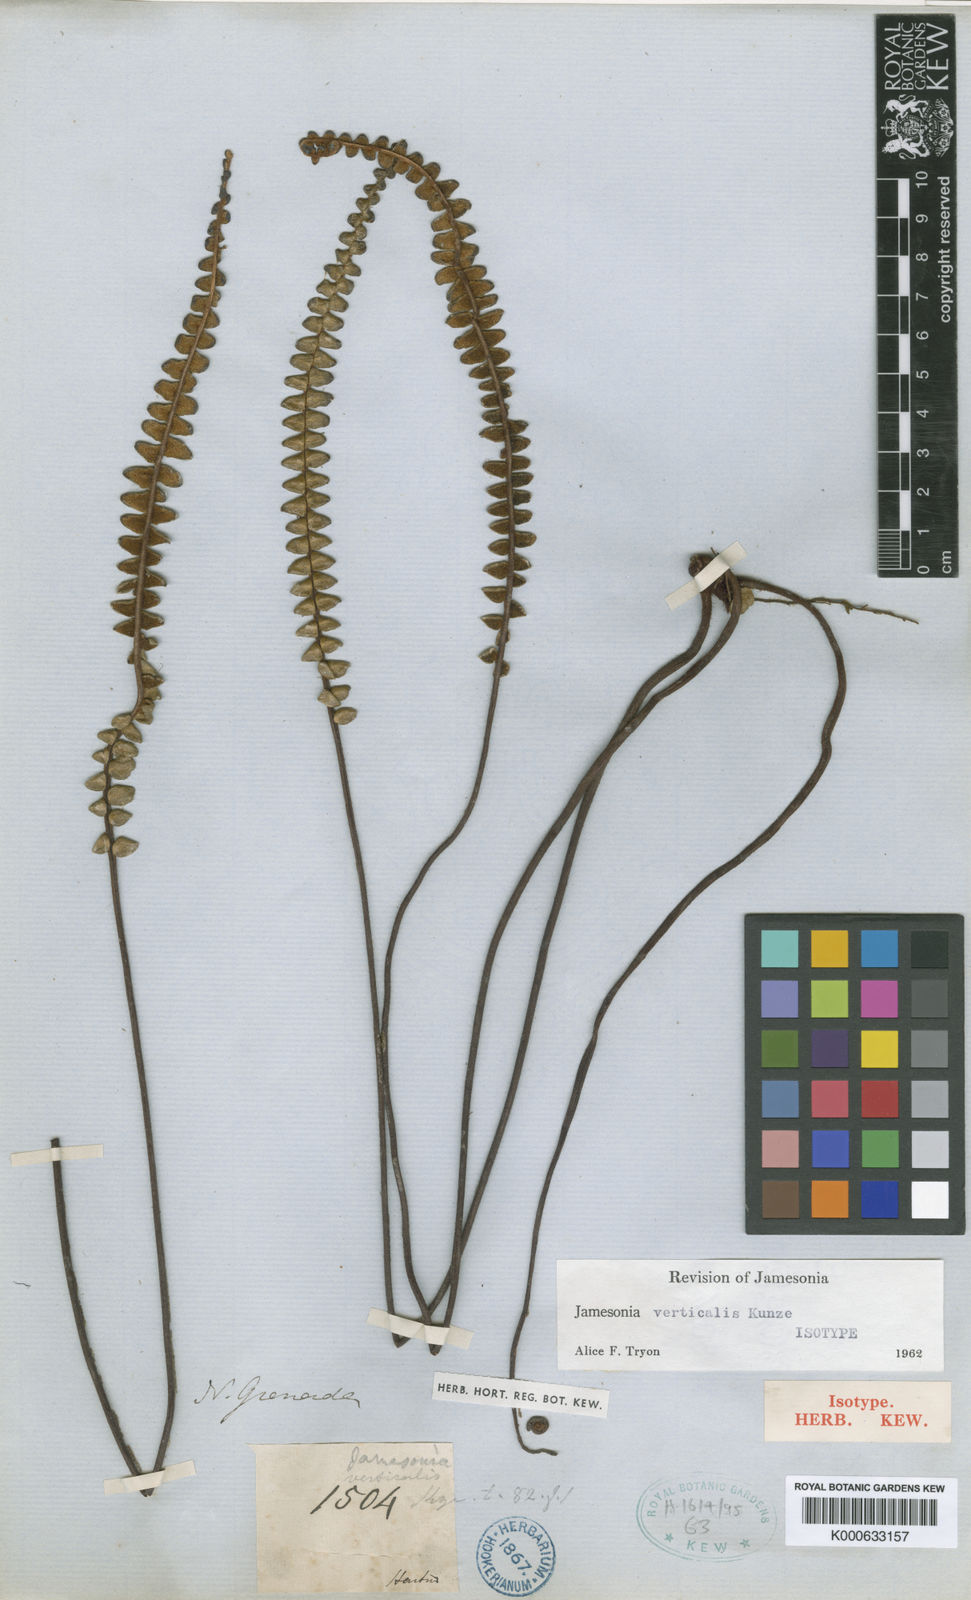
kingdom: Plantae
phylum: Tracheophyta
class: Polypodiopsida
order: Polypodiales
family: Pteridaceae
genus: Jamesonia
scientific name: Jamesonia verticalis
